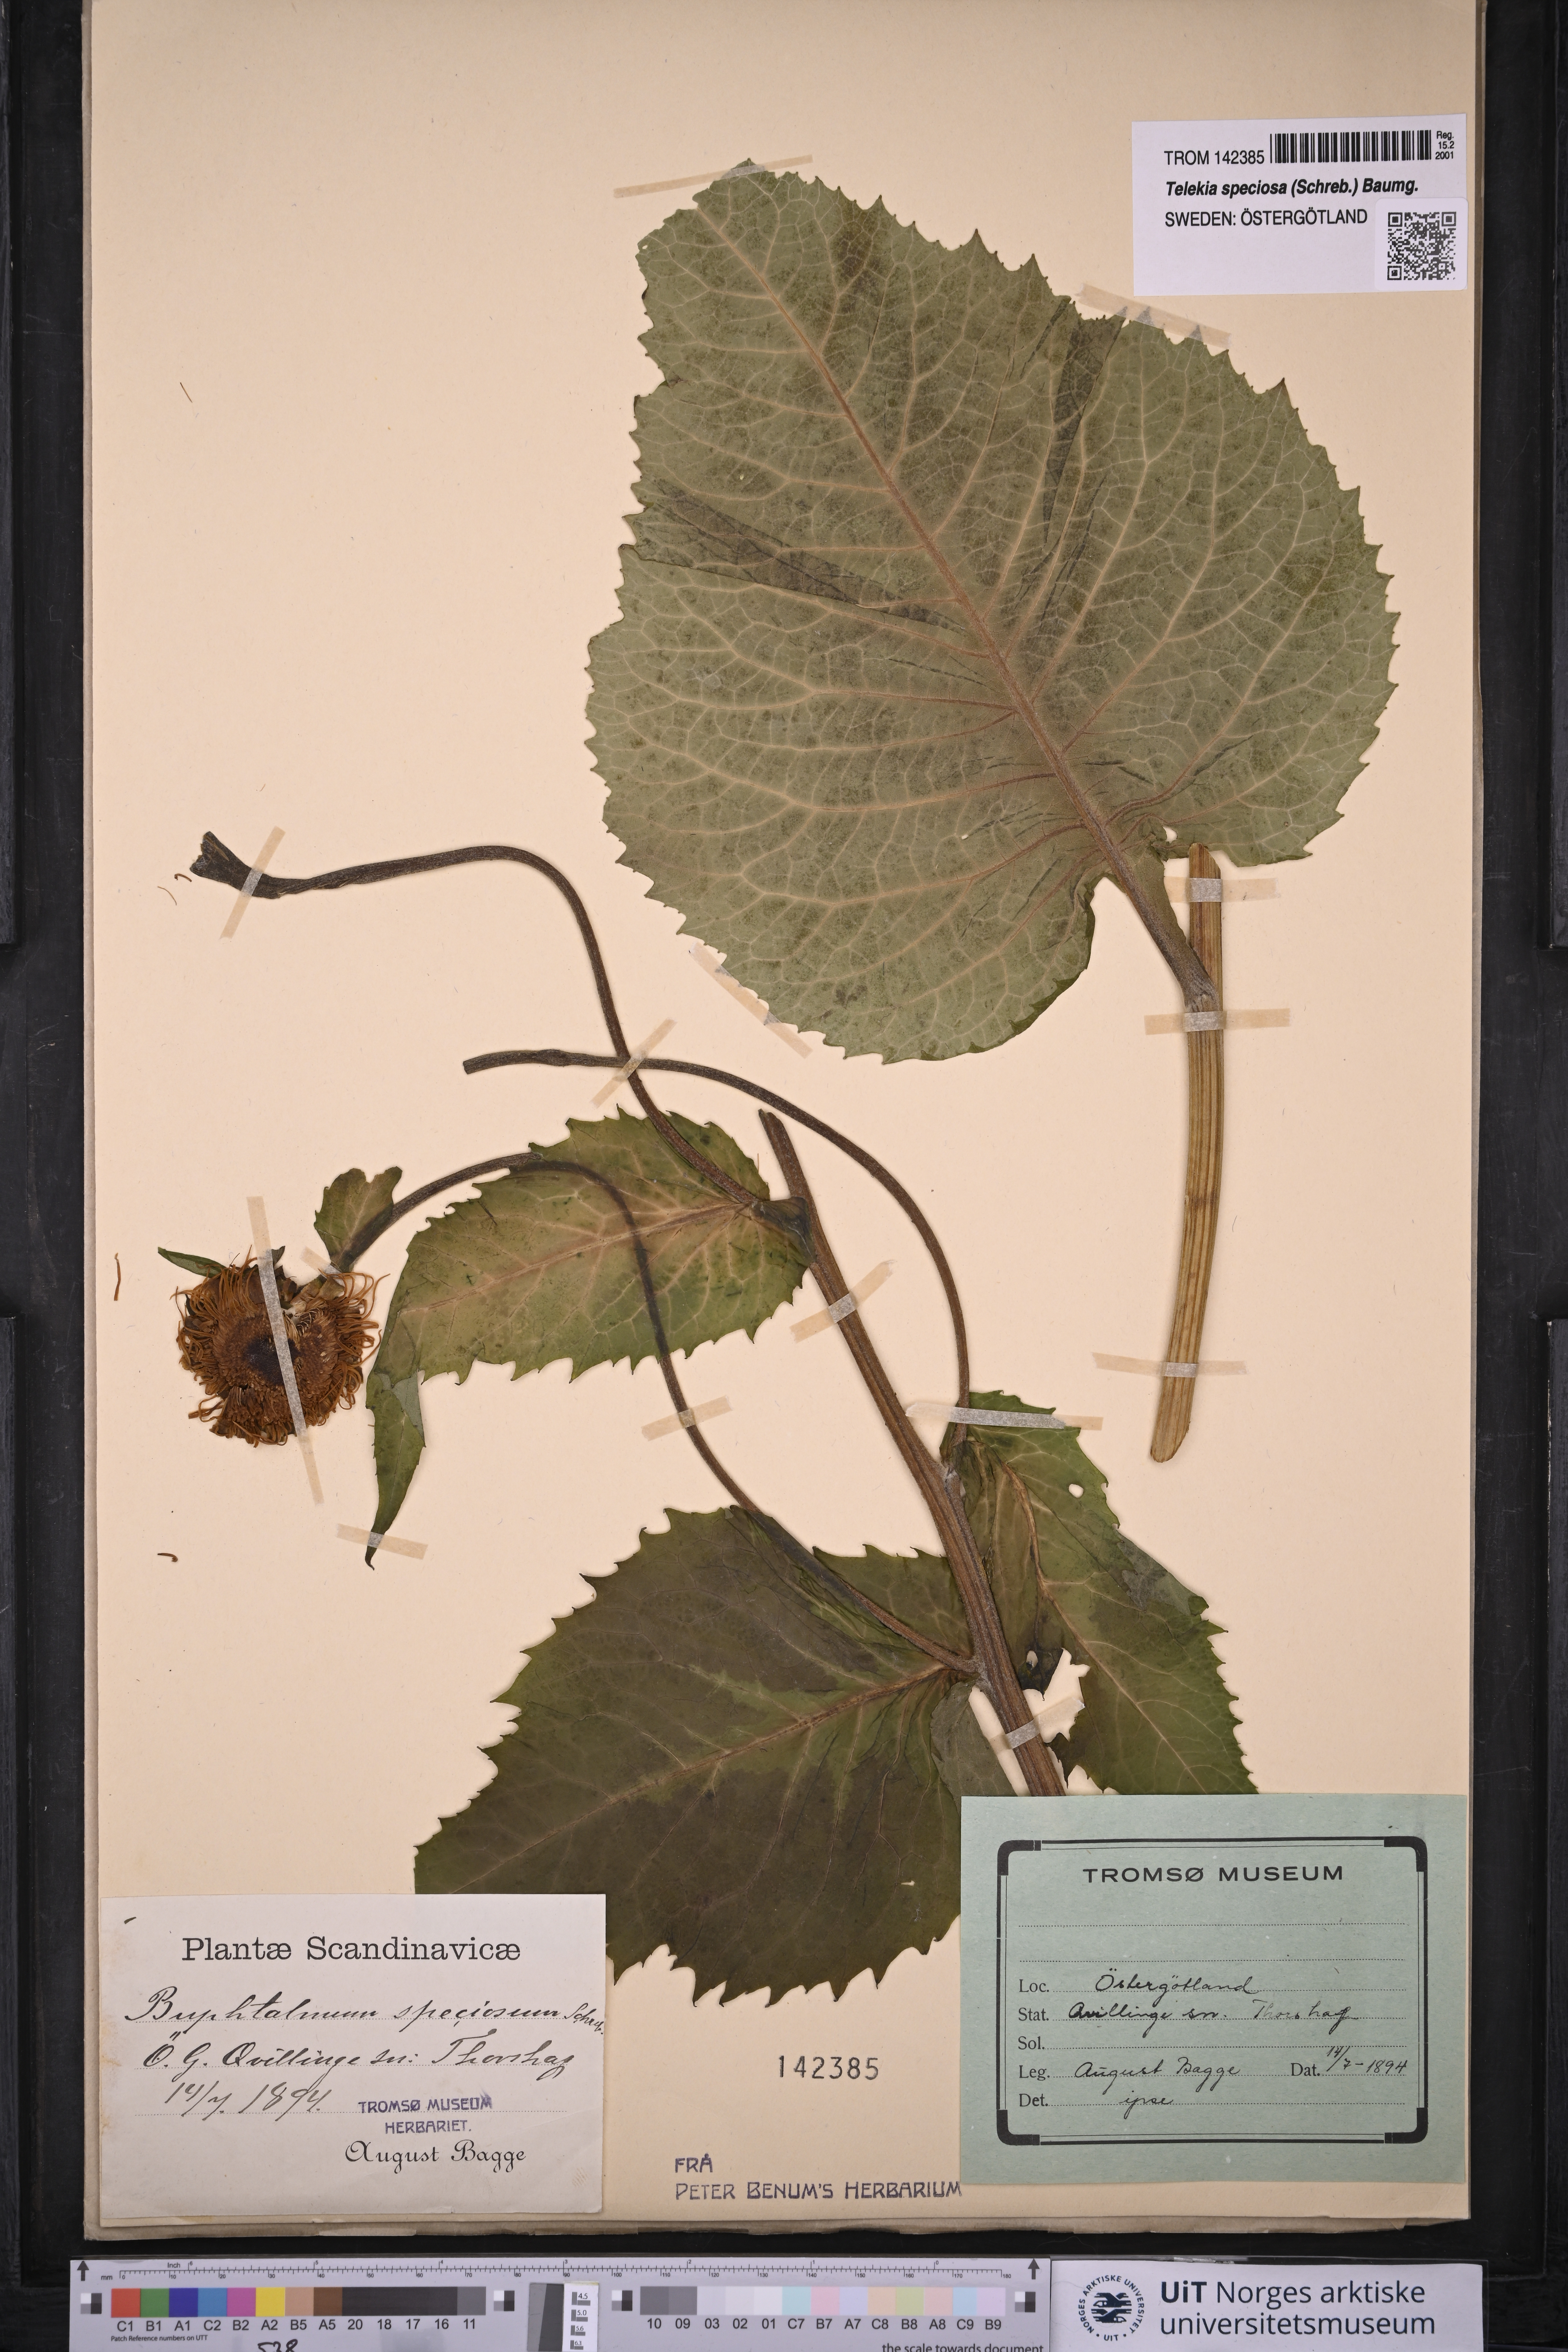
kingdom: Plantae
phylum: Tracheophyta
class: Magnoliopsida
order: Asterales
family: Asteraceae
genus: Telekia
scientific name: Telekia speciosa
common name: Yellow oxeye
